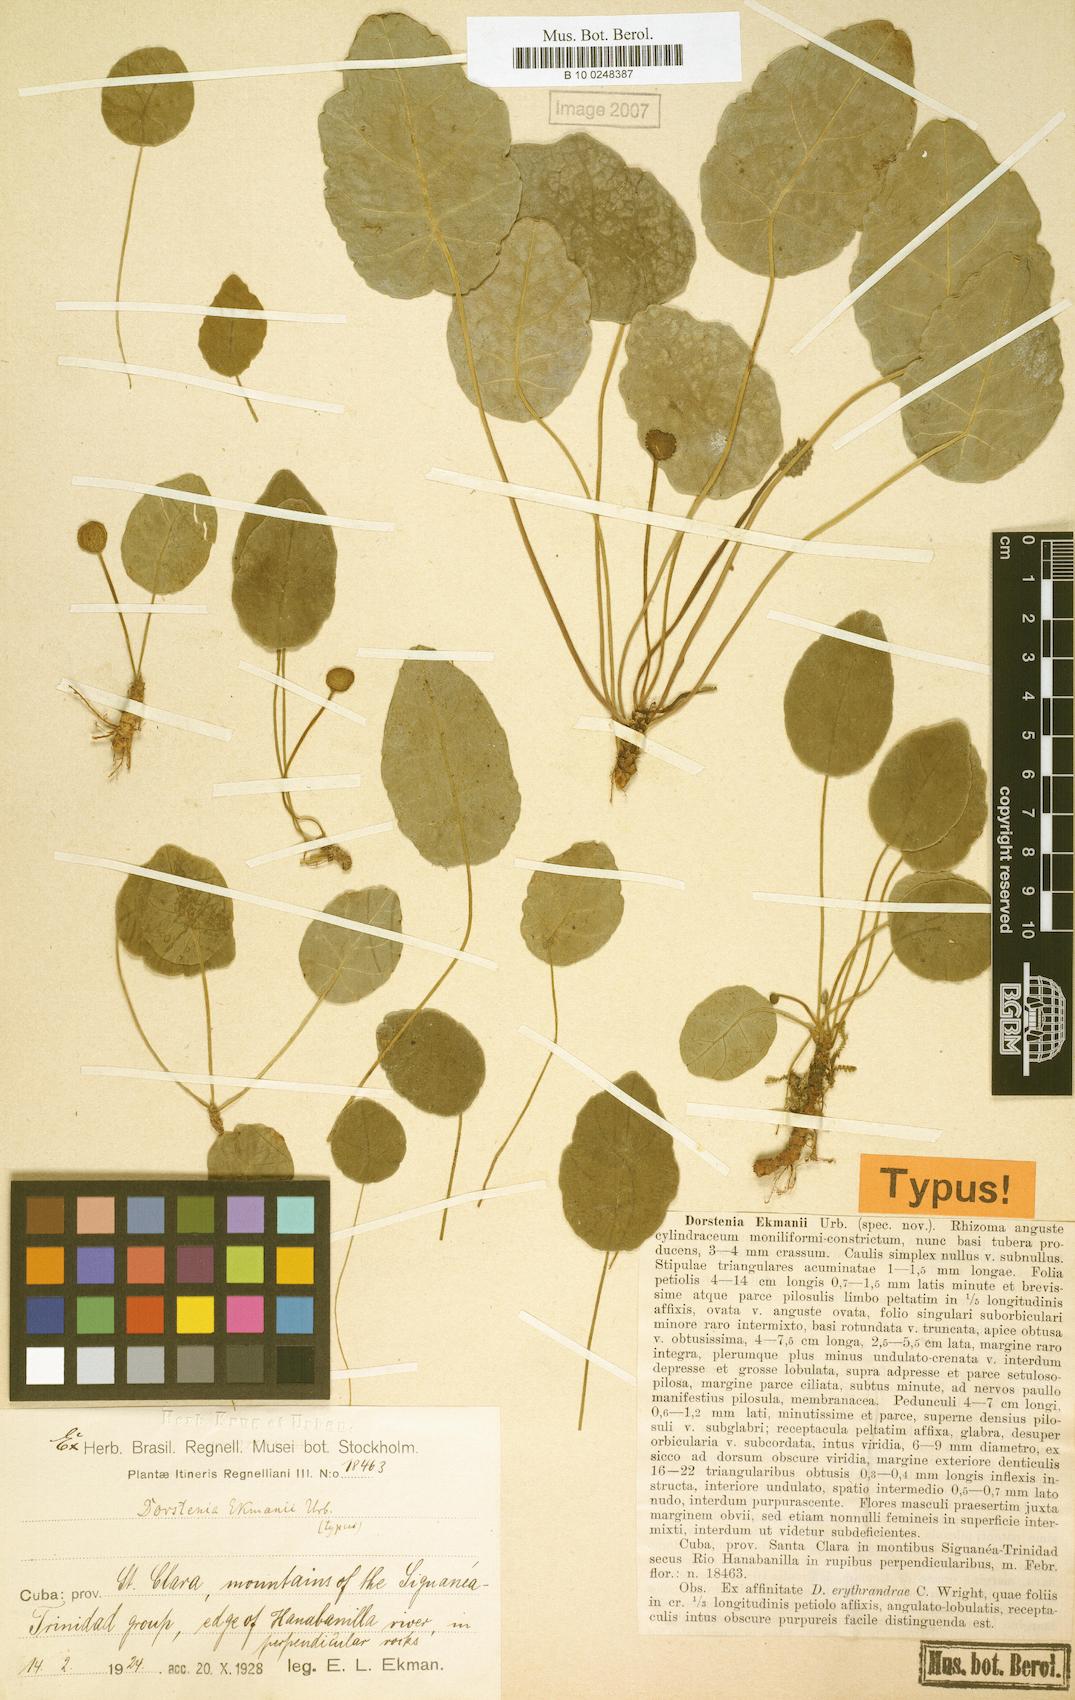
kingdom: Plantae
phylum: Tracheophyta
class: Magnoliopsida
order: Rosales
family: Moraceae
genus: Dorstenia
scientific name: Dorstenia nummularia
